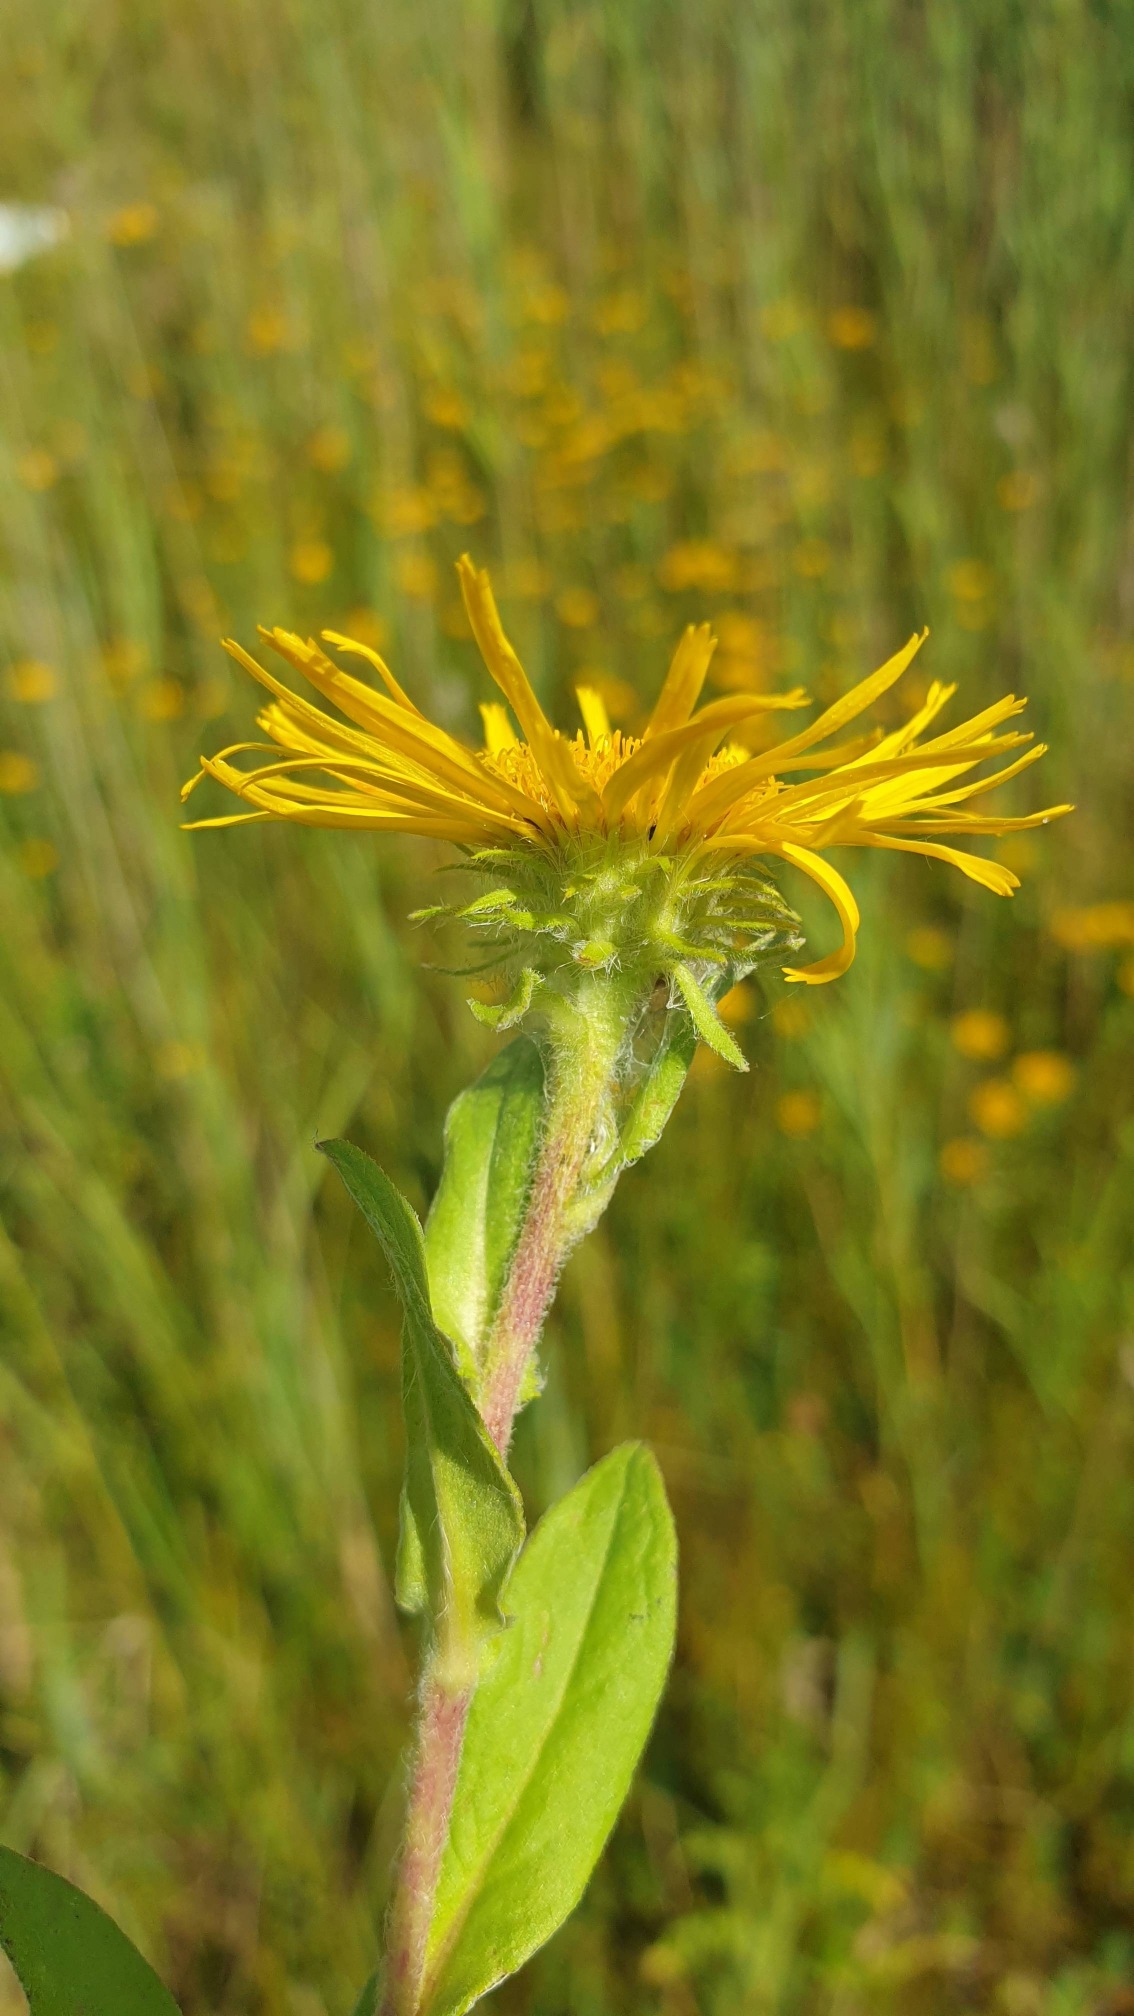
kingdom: Plantae
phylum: Tracheophyta
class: Magnoliopsida
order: Asterales
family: Asteraceae
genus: Pentanema
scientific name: Pentanema britannicum
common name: Soløje-alant
